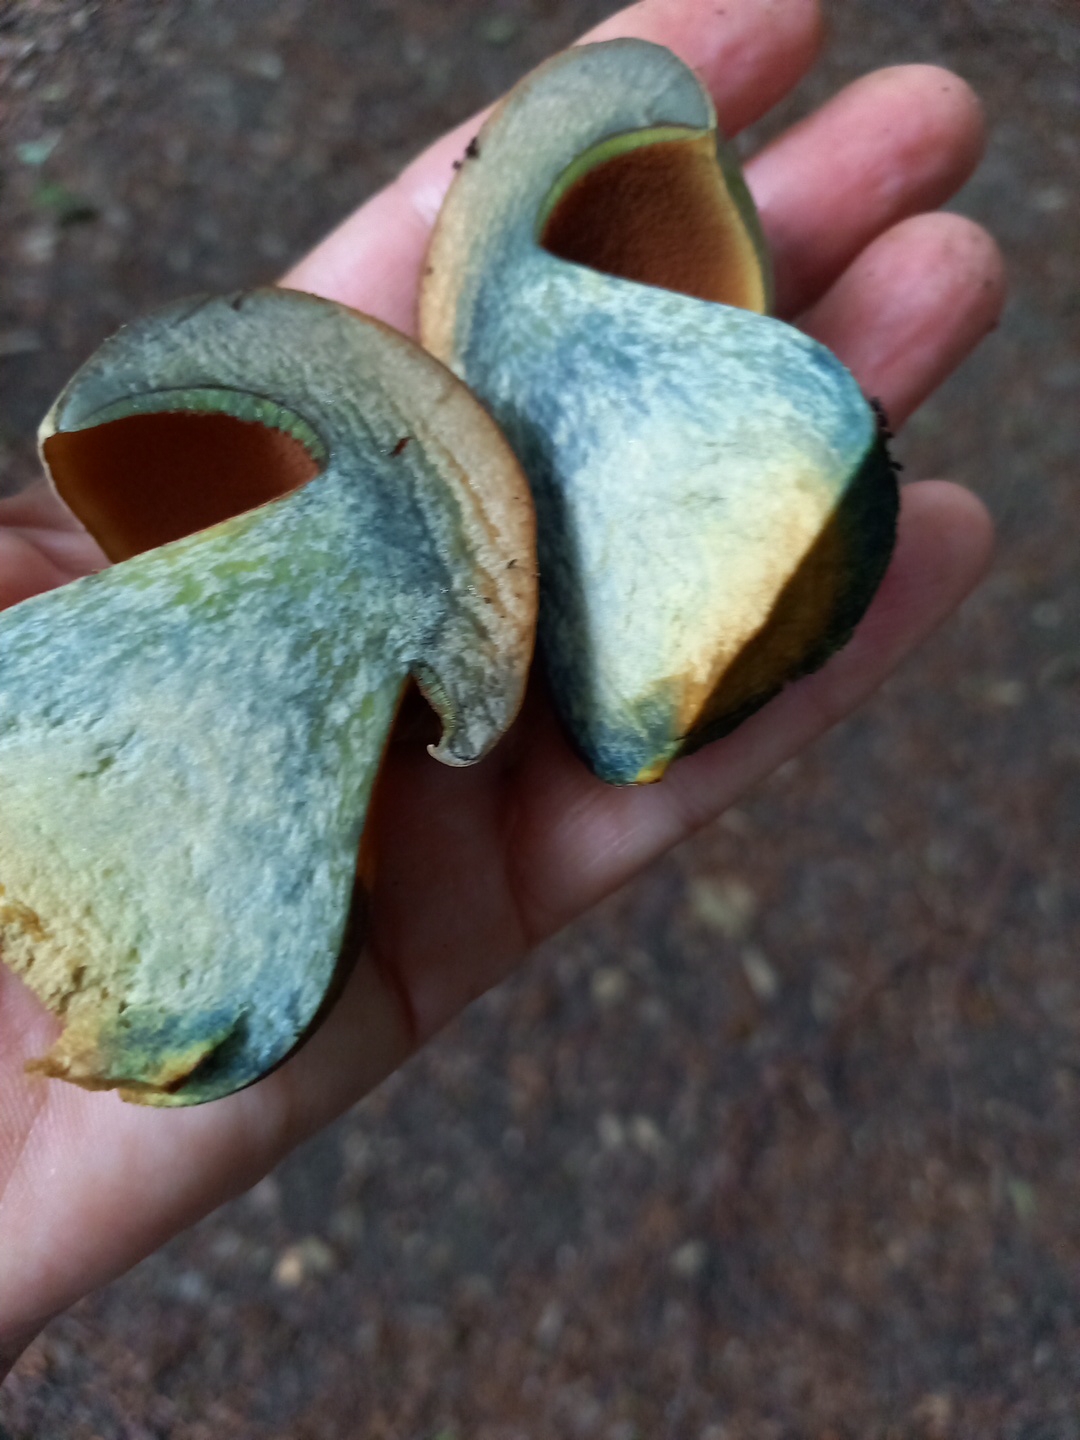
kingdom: Fungi
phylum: Basidiomycota
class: Agaricomycetes
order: Boletales
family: Boletaceae
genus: Suillellus
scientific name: Suillellus luridus
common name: netstokket indigorørhat
